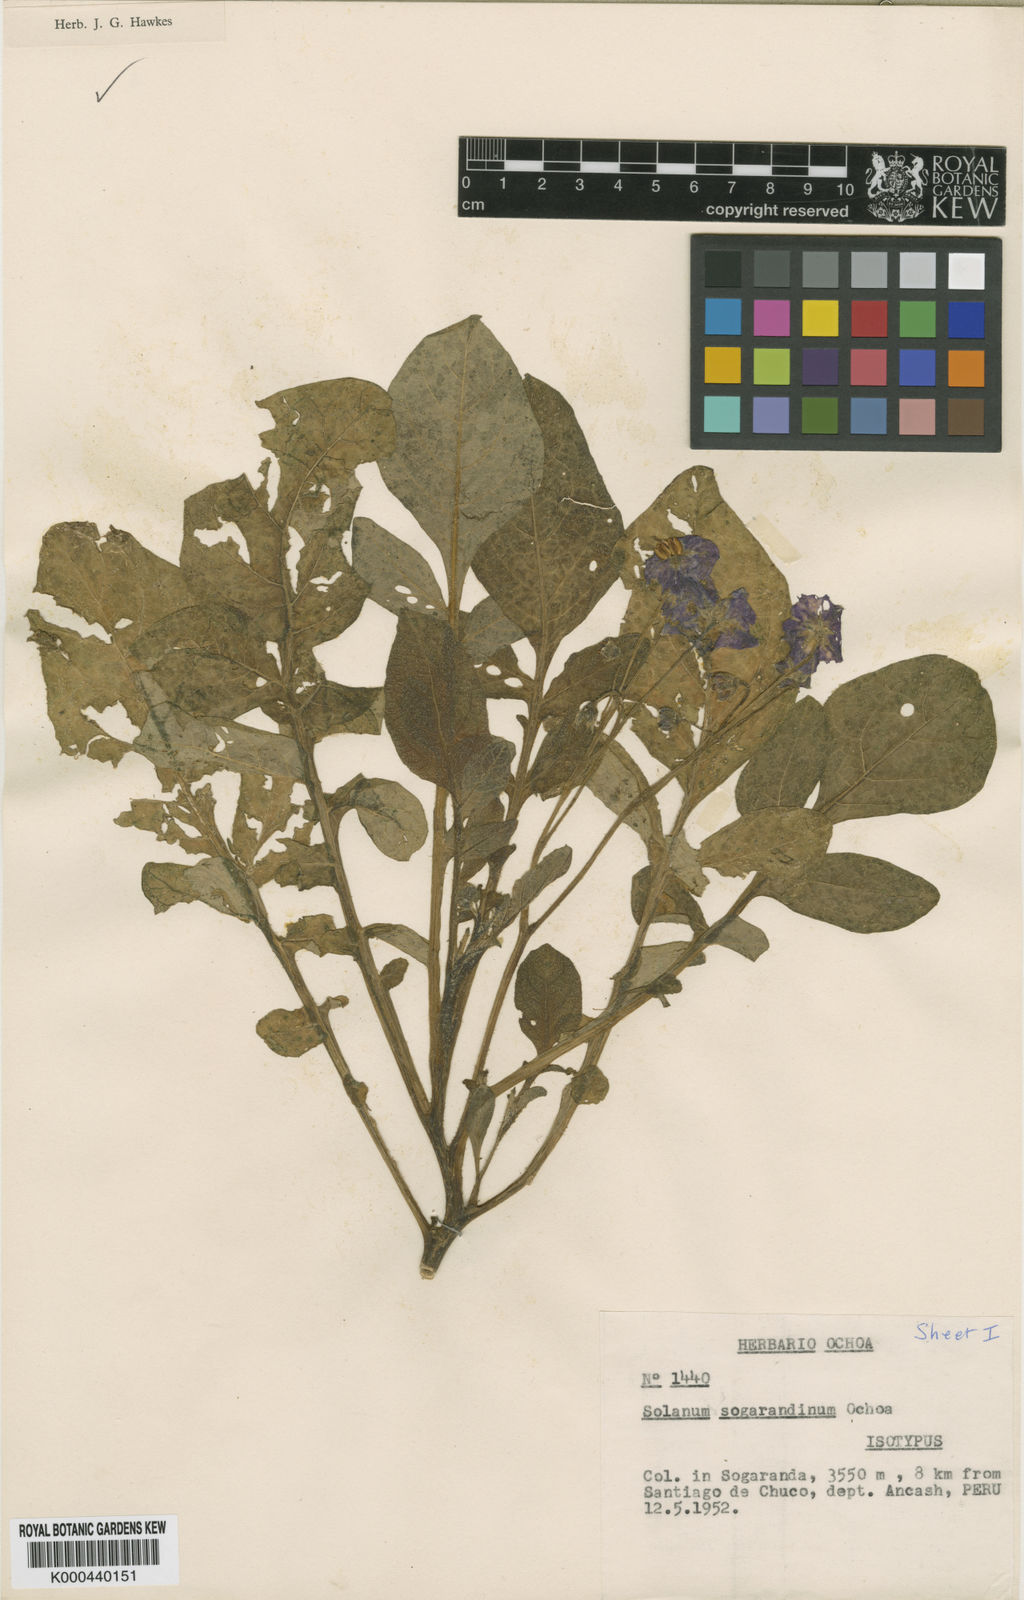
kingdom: Plantae
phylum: Tracheophyta
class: Magnoliopsida
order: Solanales
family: Solanaceae
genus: Solanum
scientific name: Solanum sogarandinum
